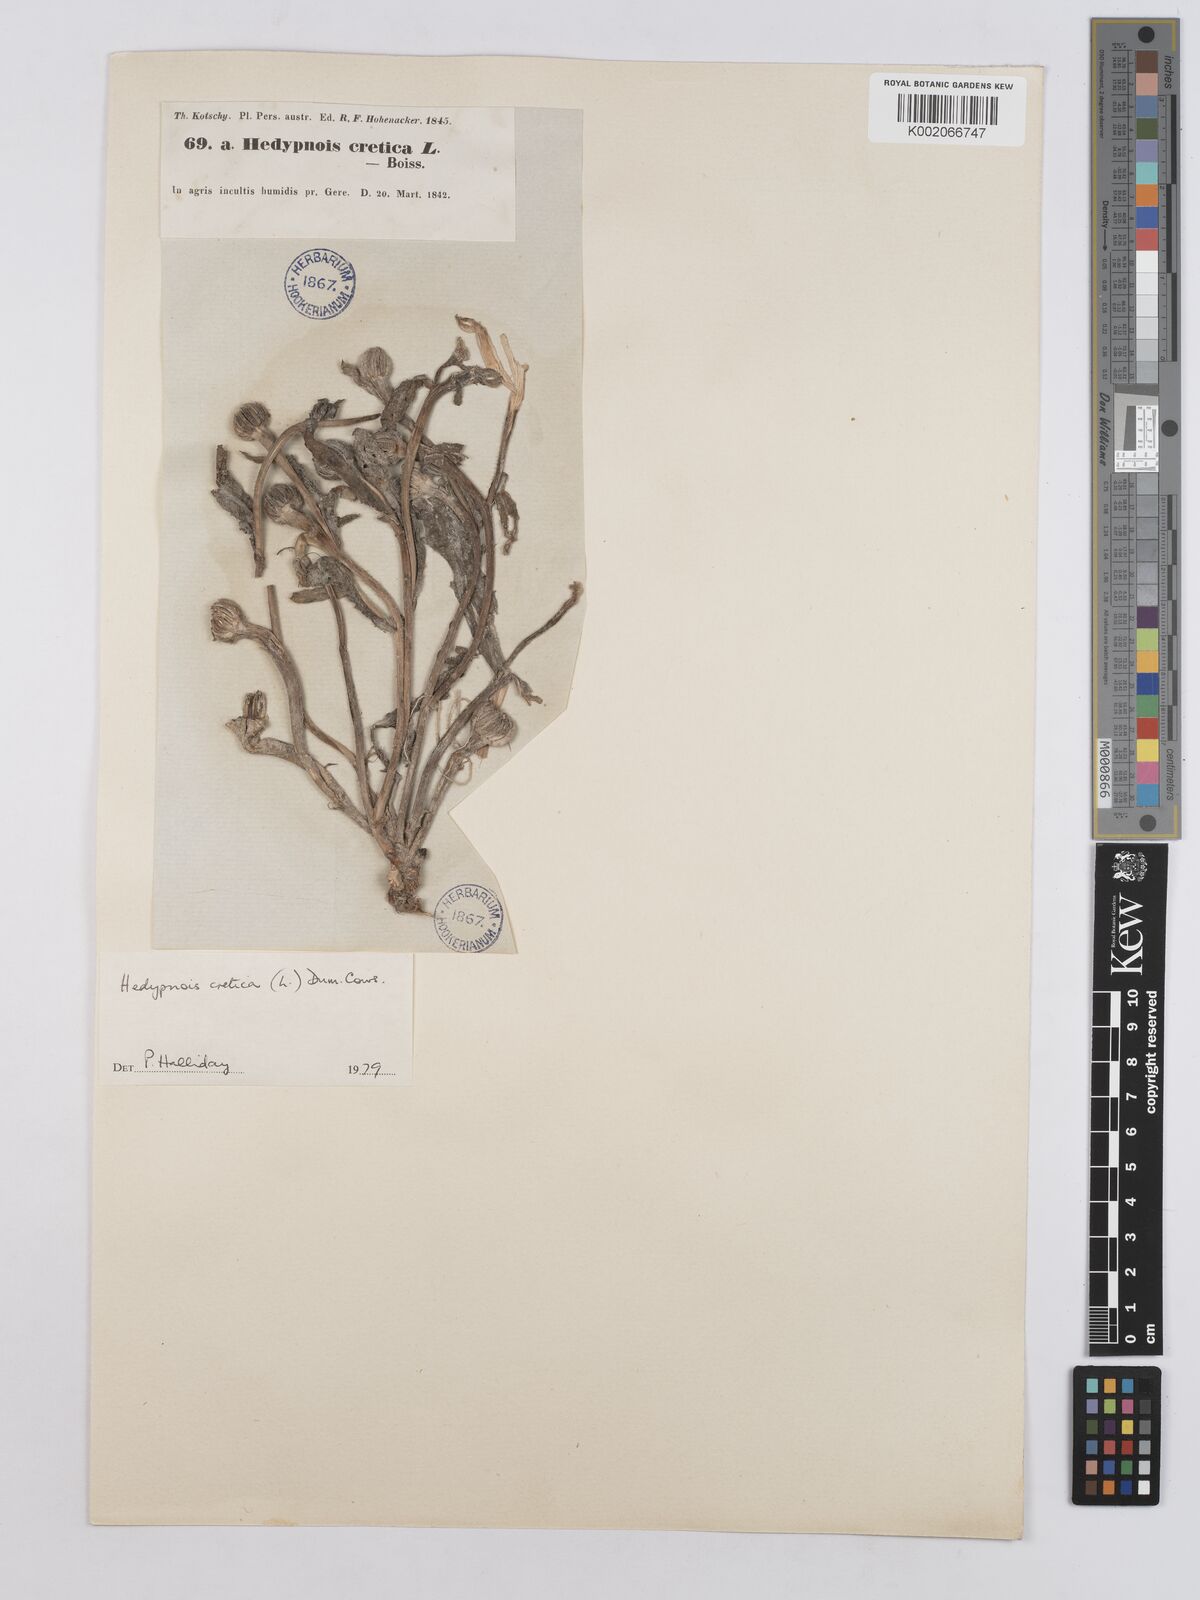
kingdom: Plantae
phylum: Tracheophyta
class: Magnoliopsida
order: Asterales
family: Asteraceae
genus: Hedypnois
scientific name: Hedypnois cretica
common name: Scaly hawkbit
